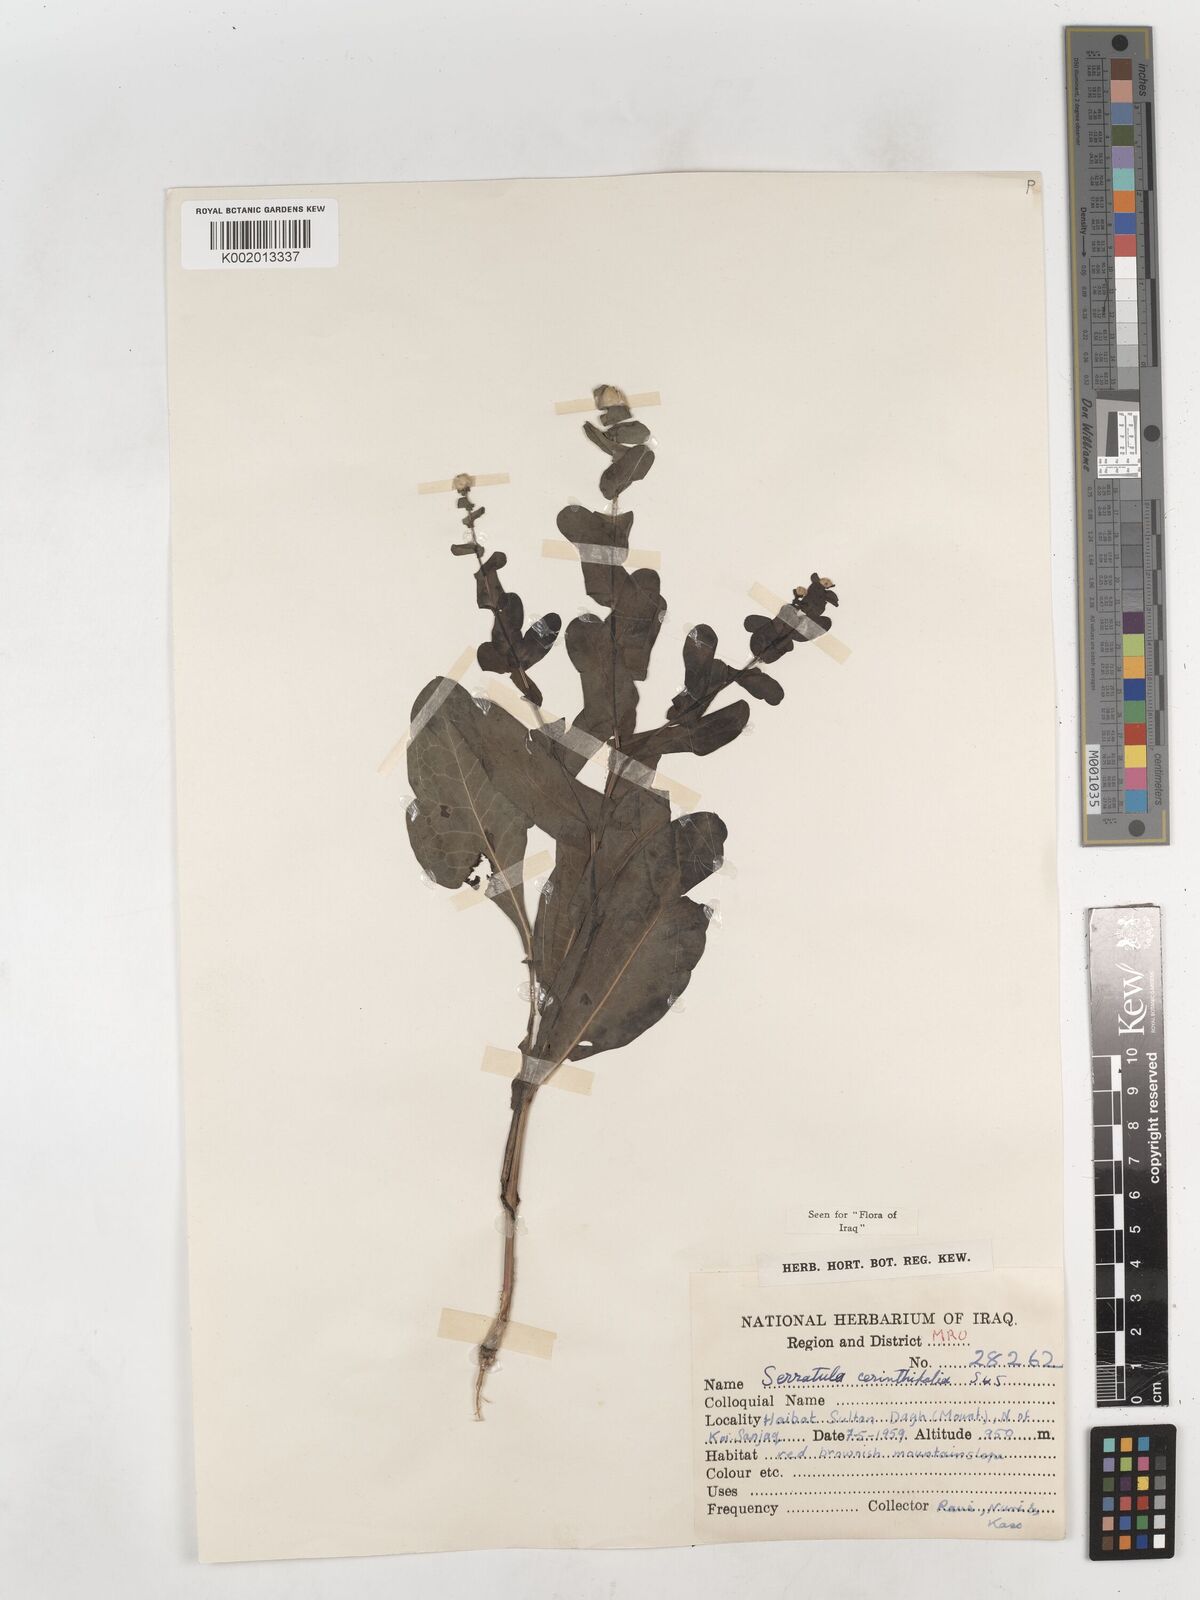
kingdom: Plantae
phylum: Tracheophyta
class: Magnoliopsida
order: Asterales
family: Asteraceae
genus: Klasea
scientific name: Klasea cerinthifolia
